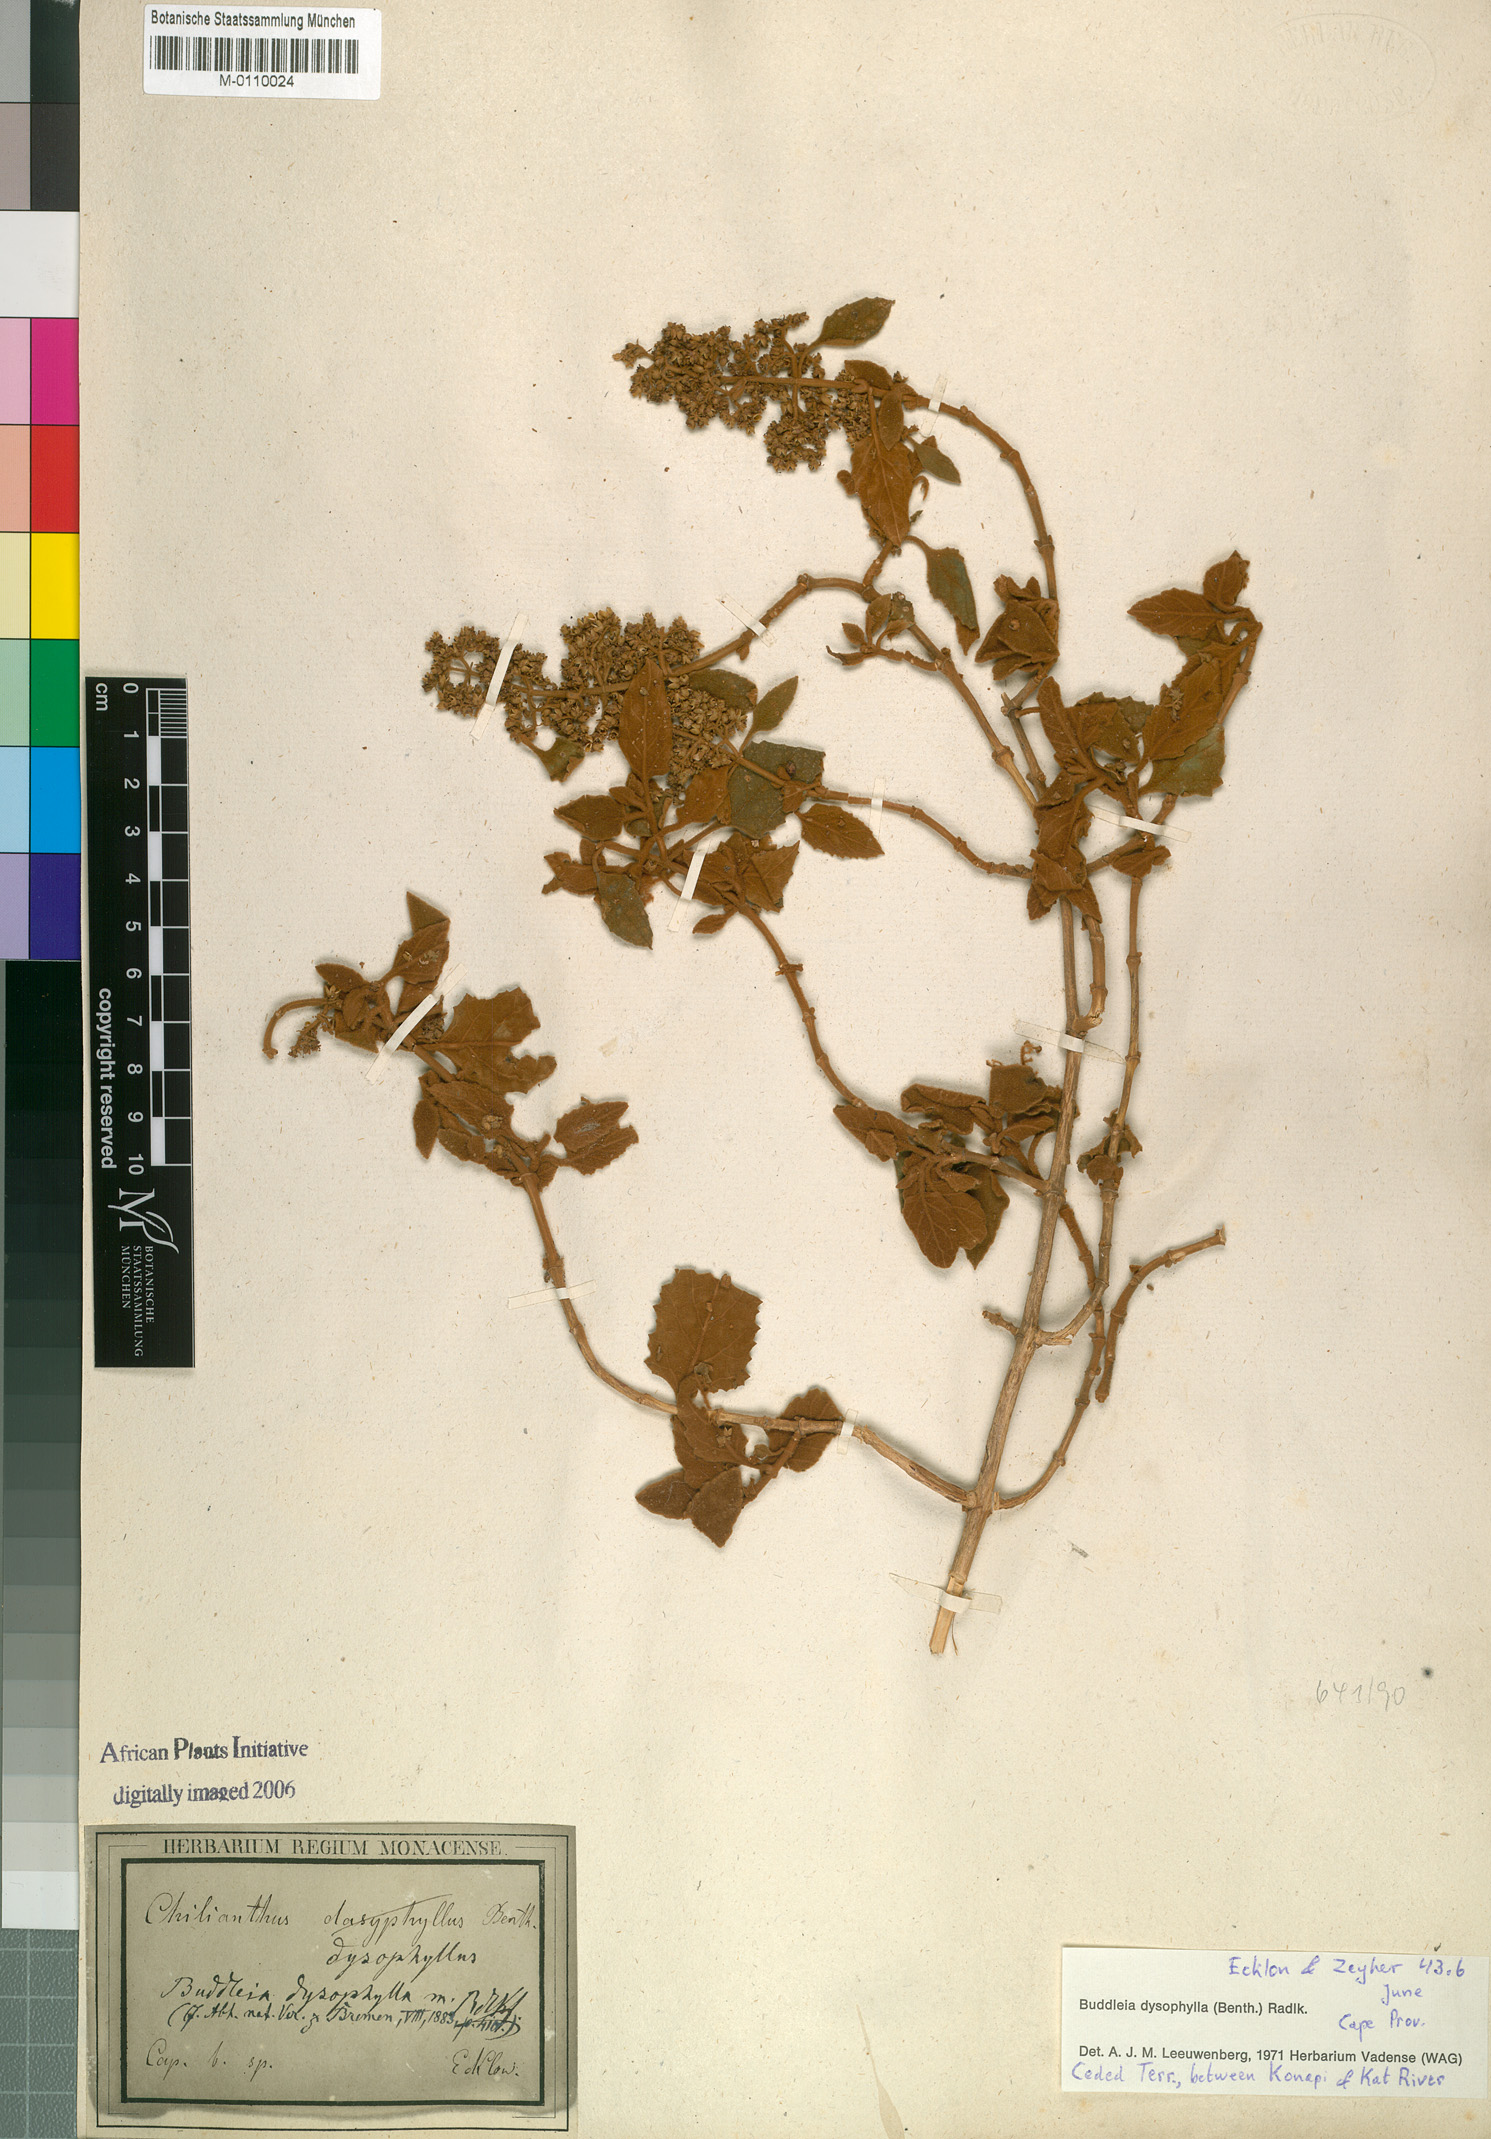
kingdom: Plantae
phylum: Tracheophyta
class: Magnoliopsida
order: Lamiales
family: Scrophulariaceae
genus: Buddleja
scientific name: Buddleja dysophylla
